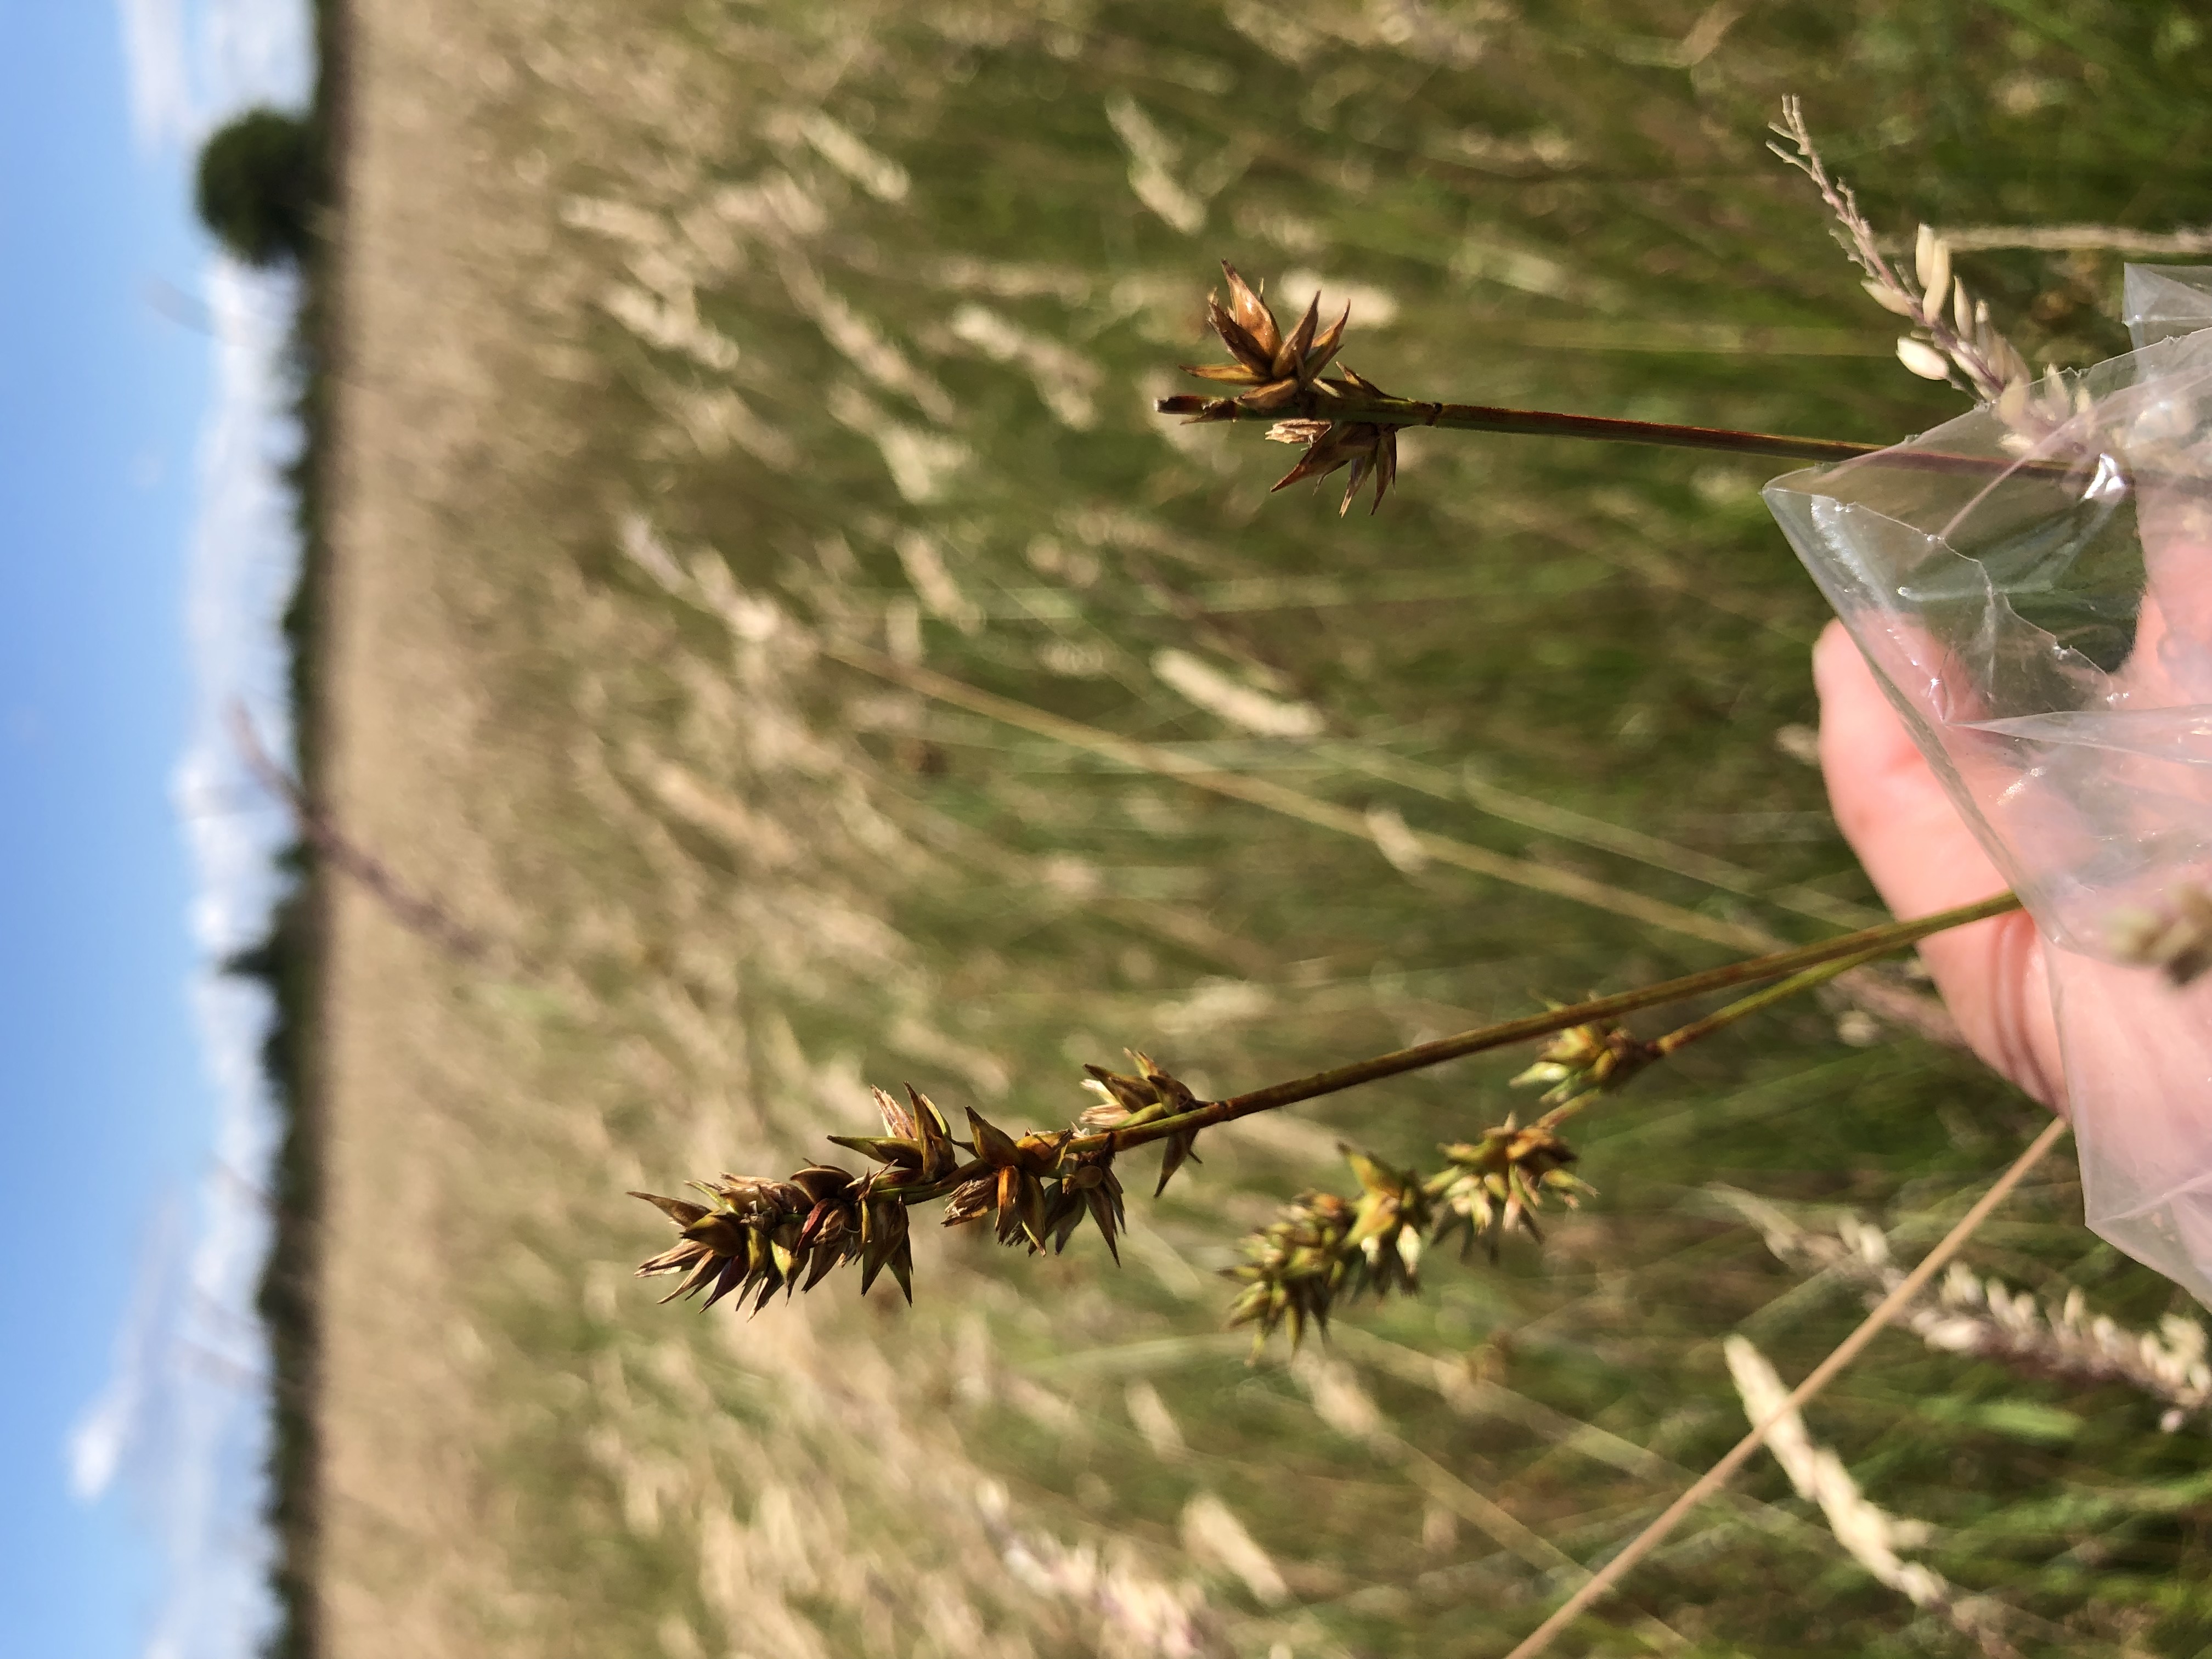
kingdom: Plantae
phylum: Tracheophyta
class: Liliopsida
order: Poales
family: Cyperaceae
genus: Carex
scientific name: Carex spicata
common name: Spidskapslet star
